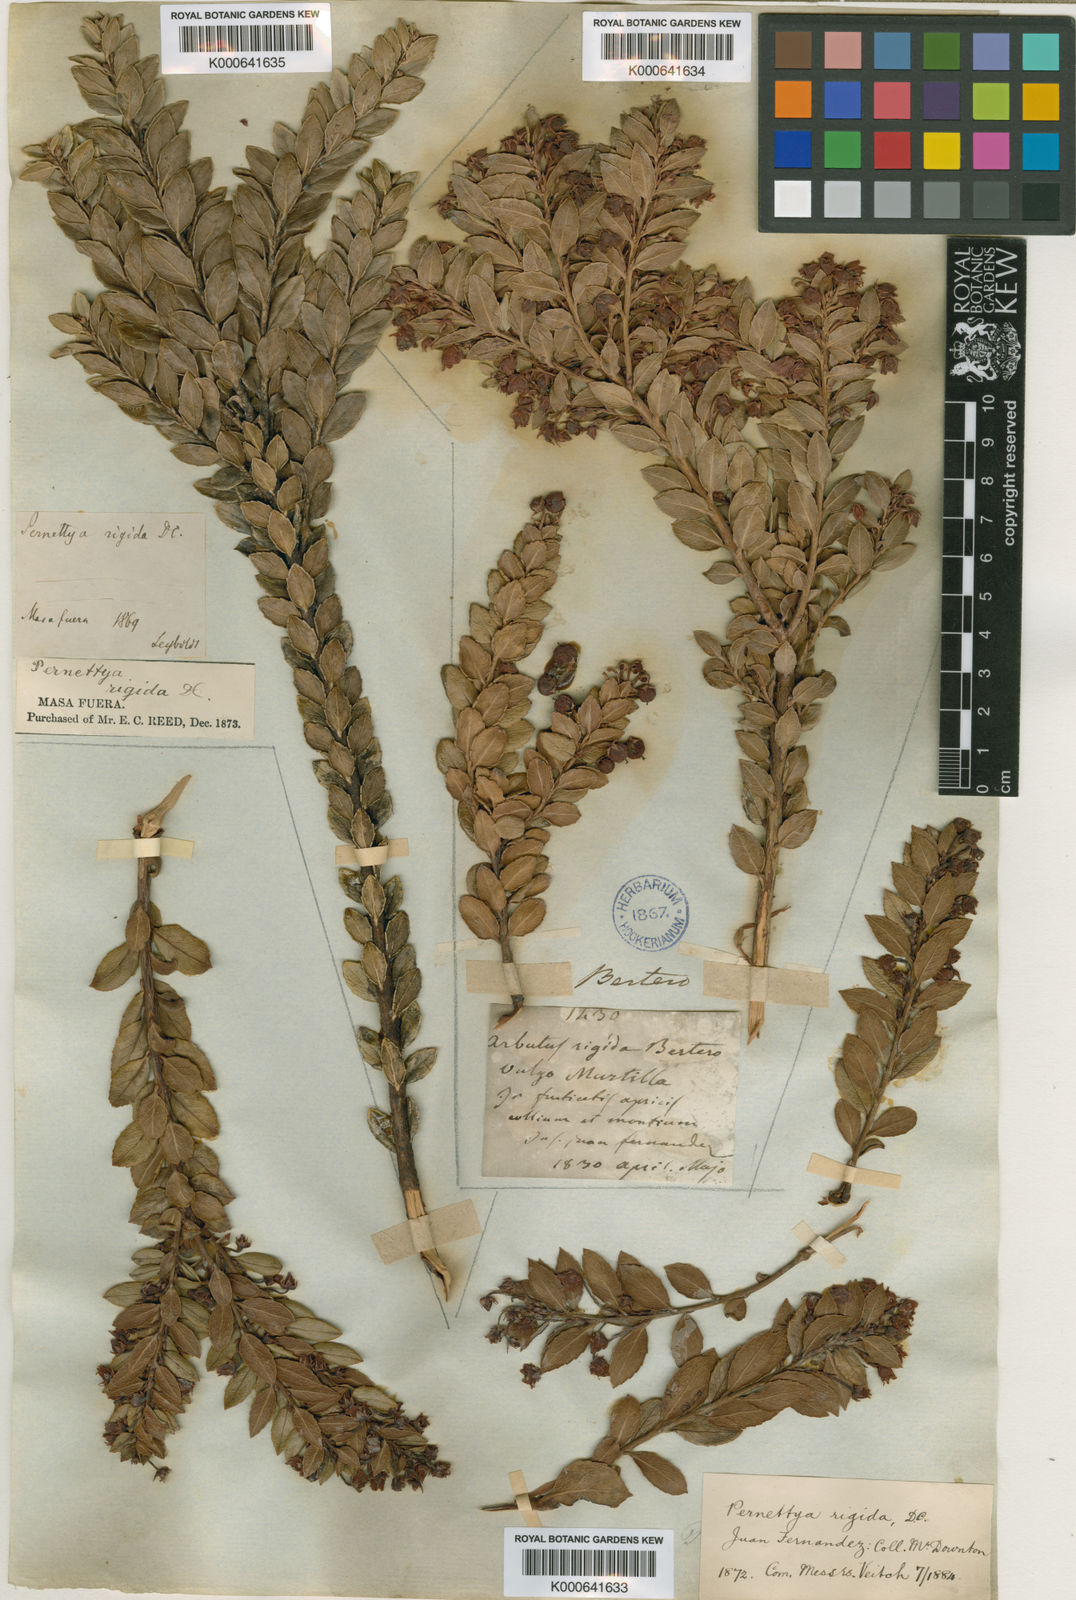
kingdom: Plantae
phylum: Tracheophyta
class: Magnoliopsida
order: Ericales
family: Ericaceae
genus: Gaultheria
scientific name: Gaultheria racemulosa
